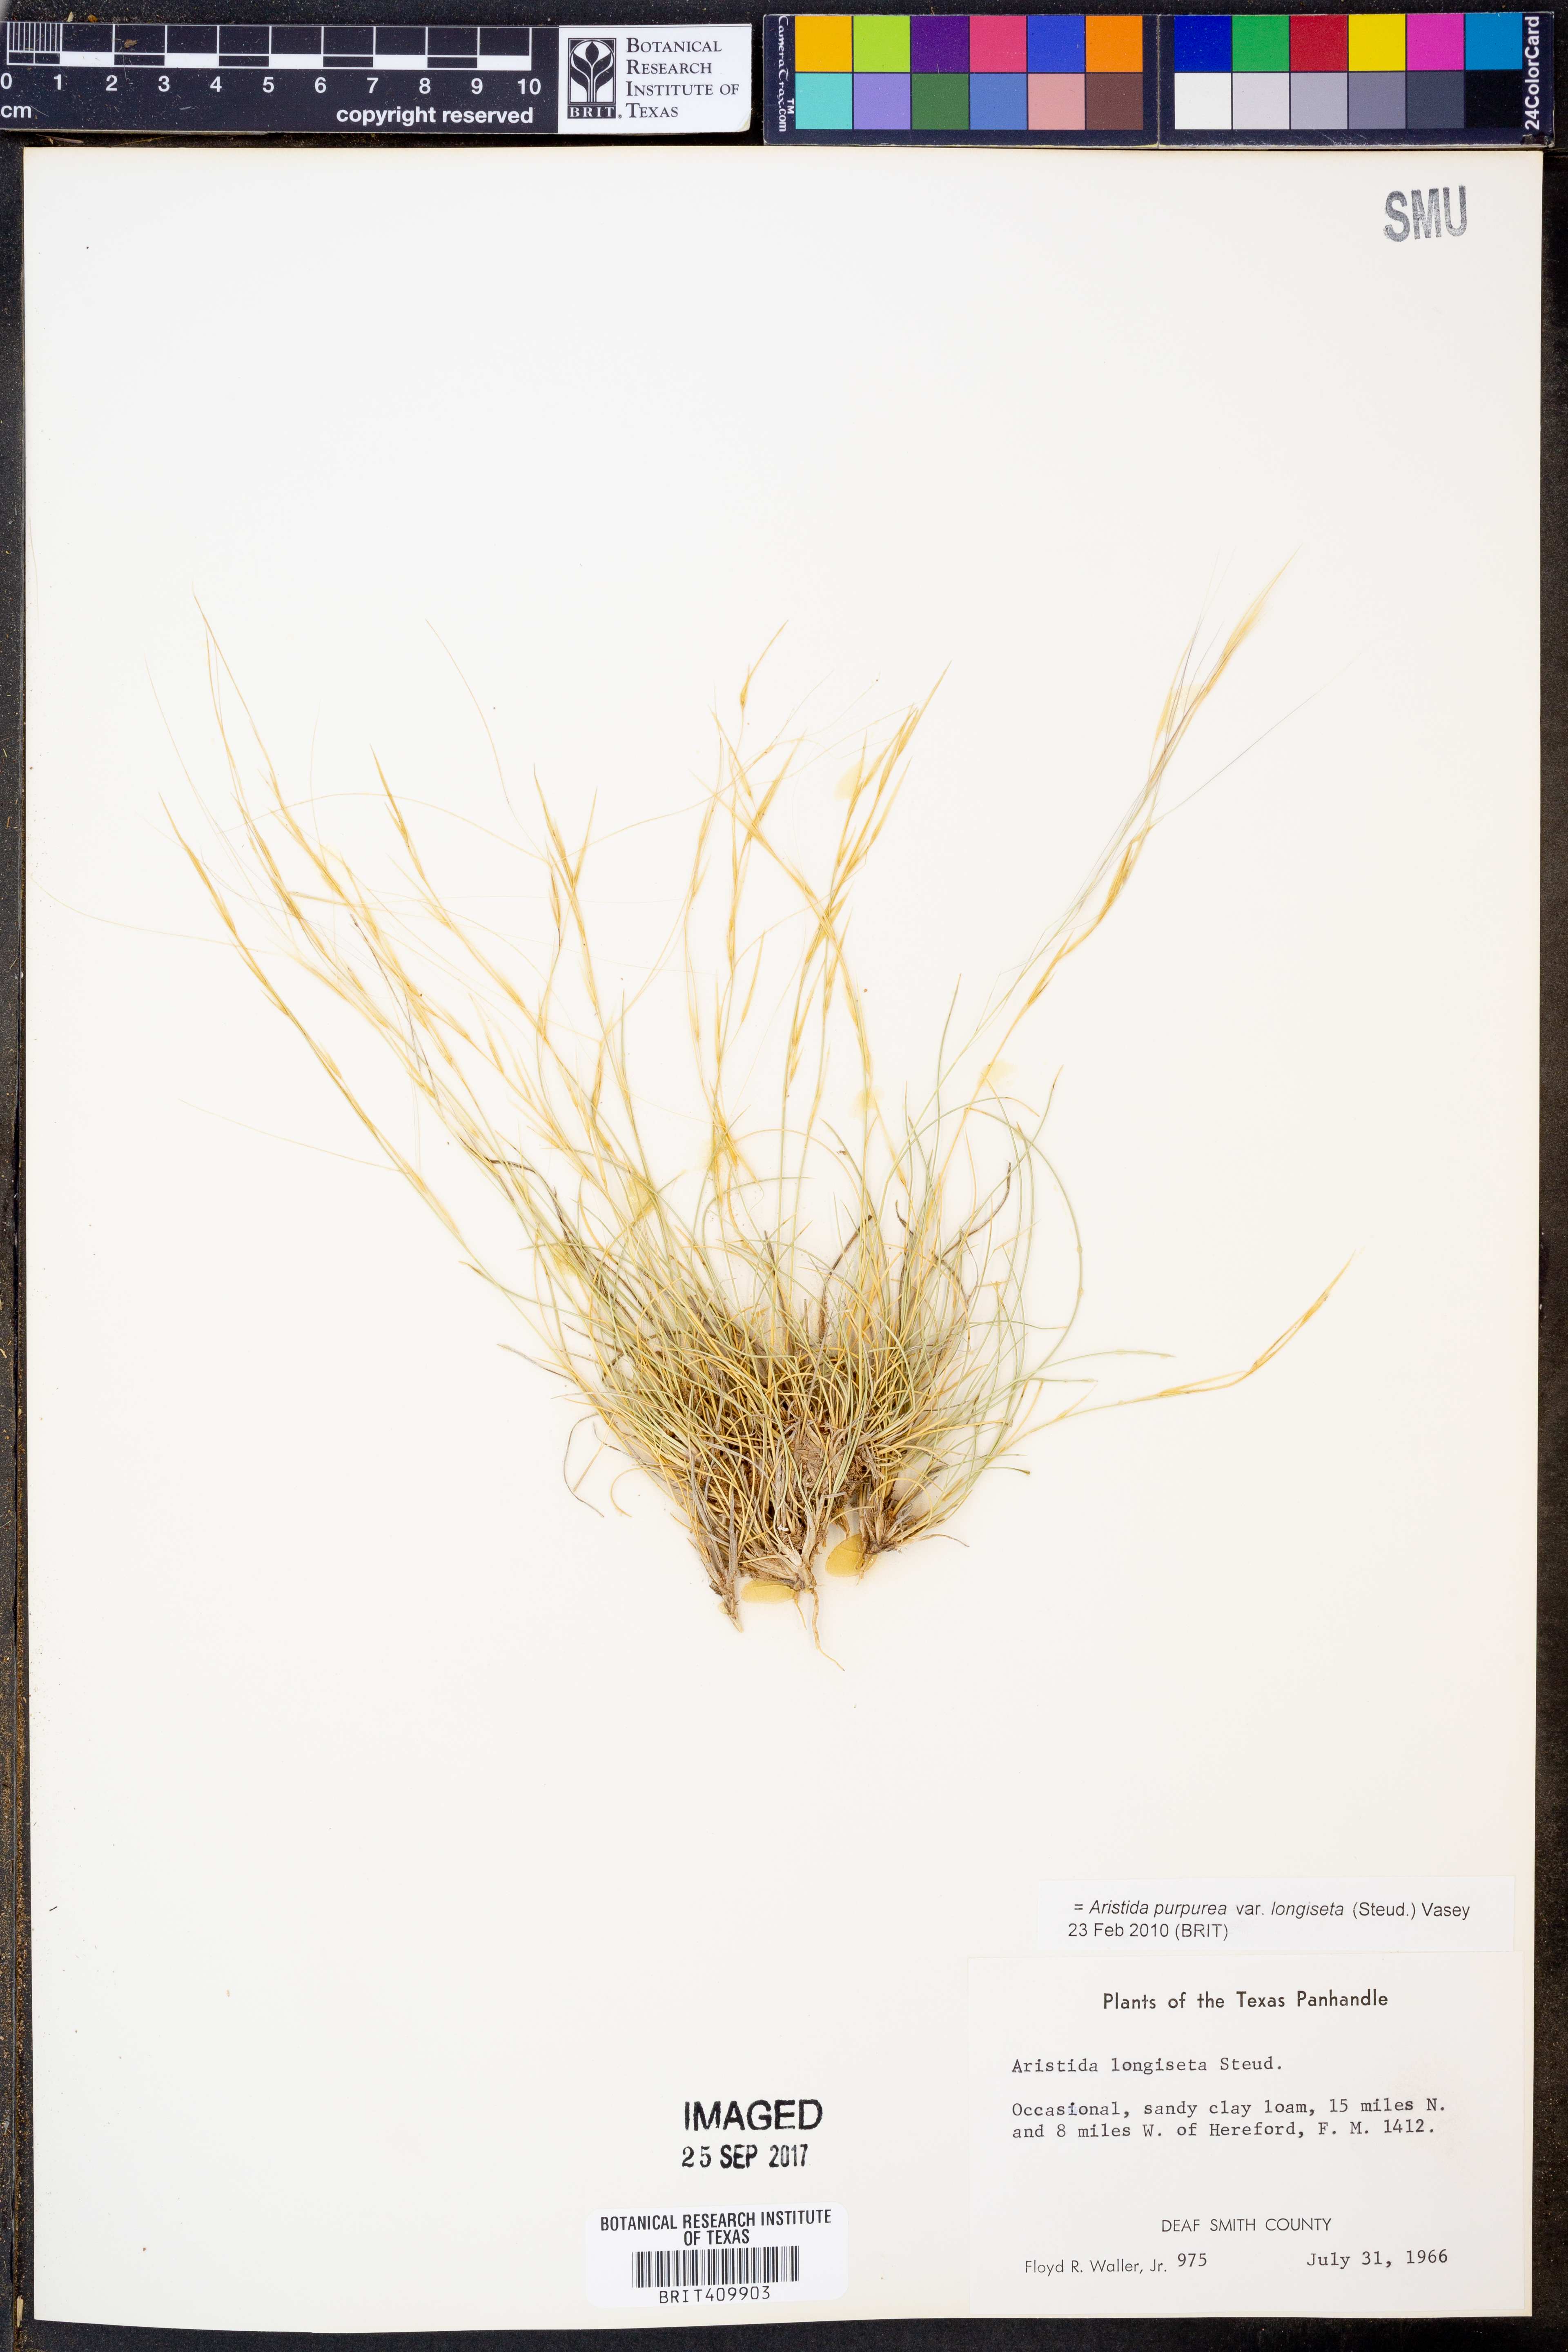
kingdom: Plantae
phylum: Tracheophyta
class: Liliopsida
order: Poales
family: Poaceae
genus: Aristida
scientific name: Aristida longiseta
